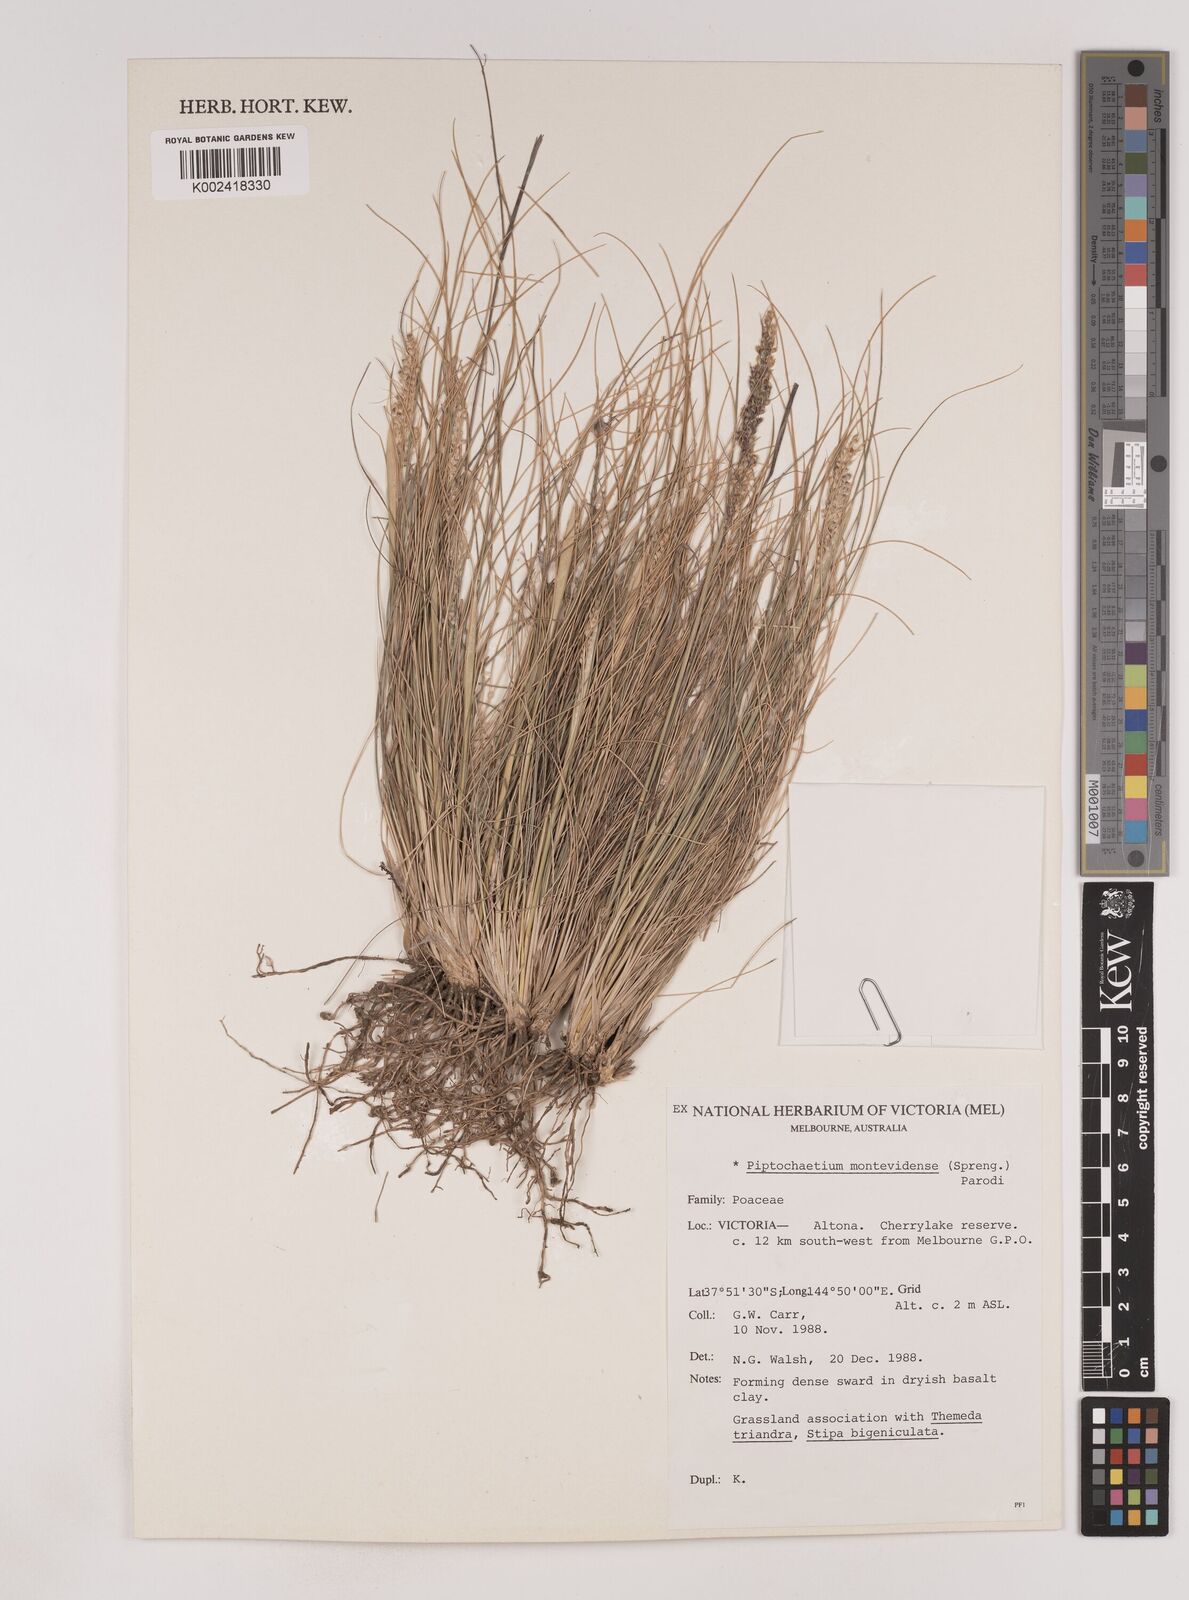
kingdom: Plantae
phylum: Tracheophyta
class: Liliopsida
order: Poales
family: Poaceae
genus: Piptochaetium
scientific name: Piptochaetium montevidense
